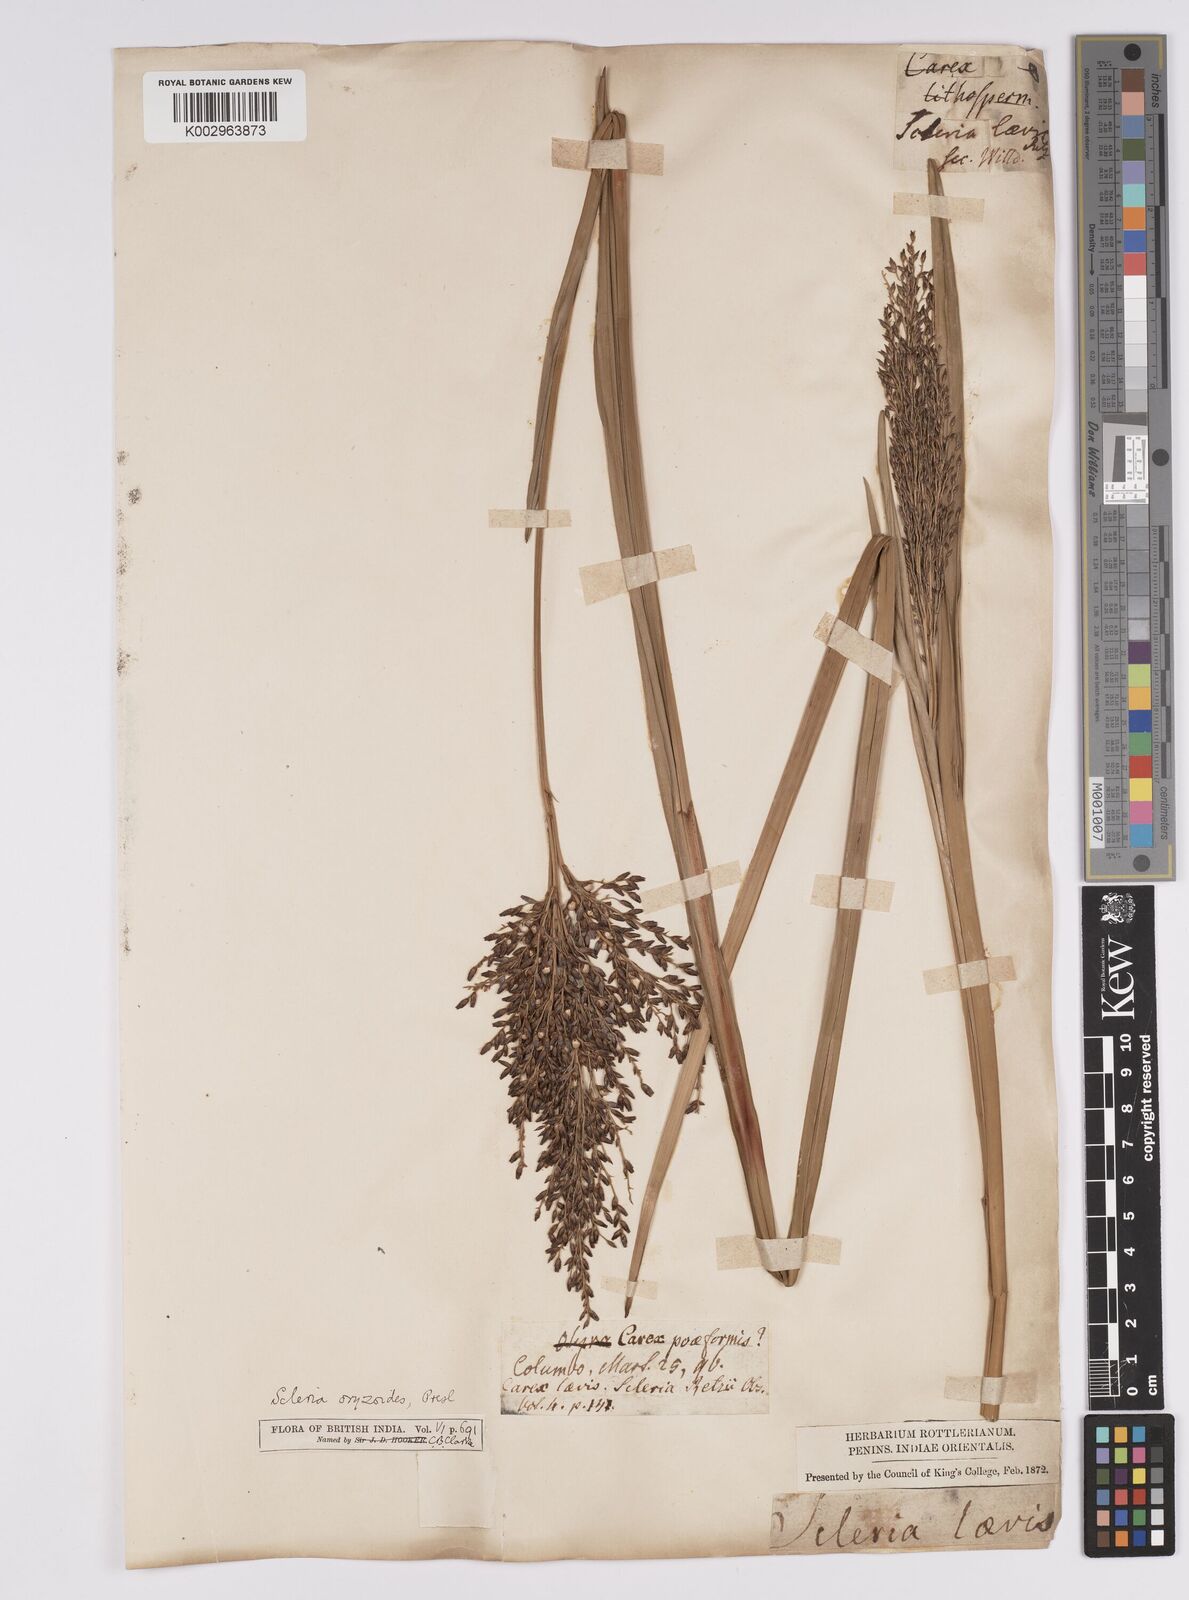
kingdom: Plantae
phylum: Tracheophyta
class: Liliopsida
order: Poales
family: Cyperaceae
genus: Scleria
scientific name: Scleria poiformis
